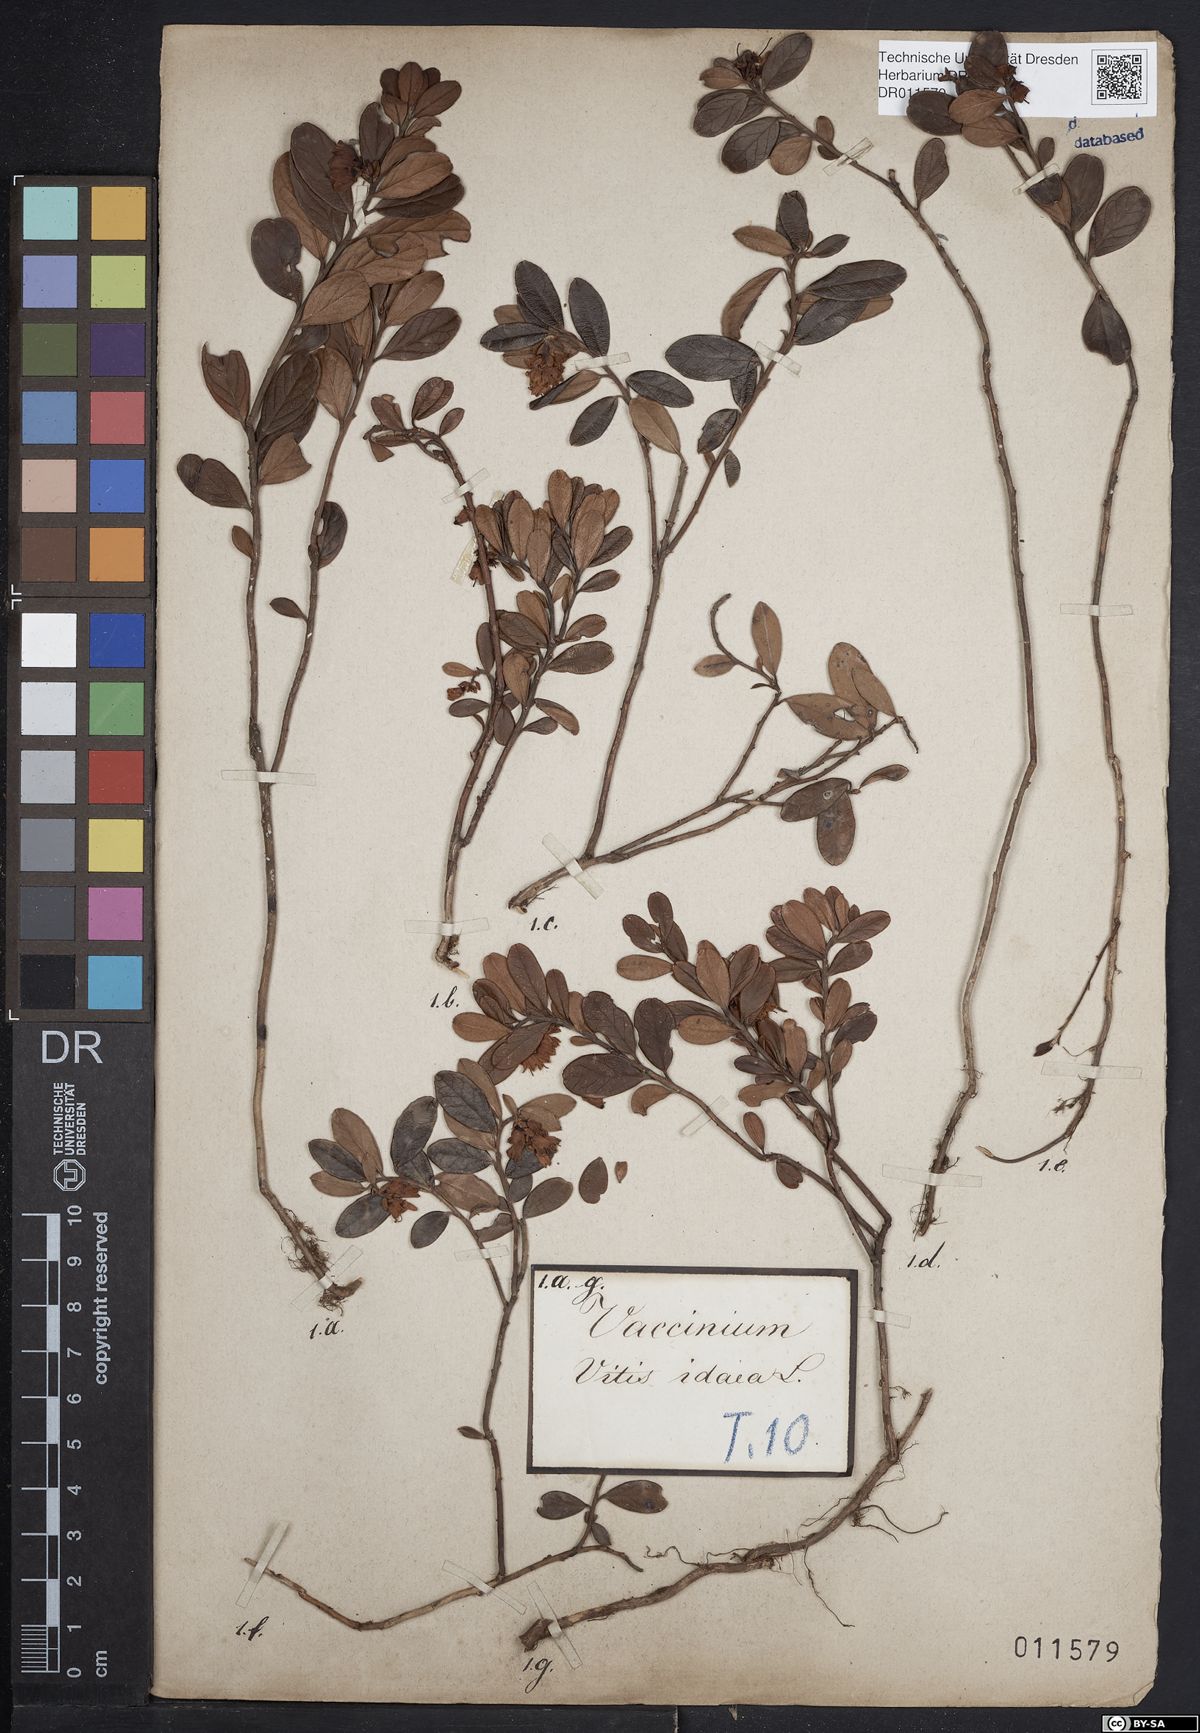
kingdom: Plantae
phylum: Tracheophyta
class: Magnoliopsida
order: Ericales
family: Ericaceae
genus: Vaccinium
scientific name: Vaccinium vitis-idaea
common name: Cowberry
